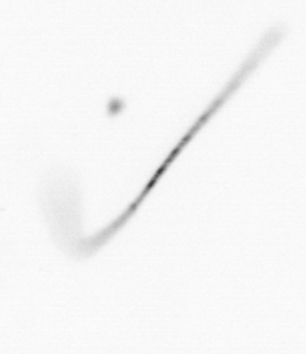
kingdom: Chromista
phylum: Ochrophyta
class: Bacillariophyceae
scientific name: Bacillariophyceae
